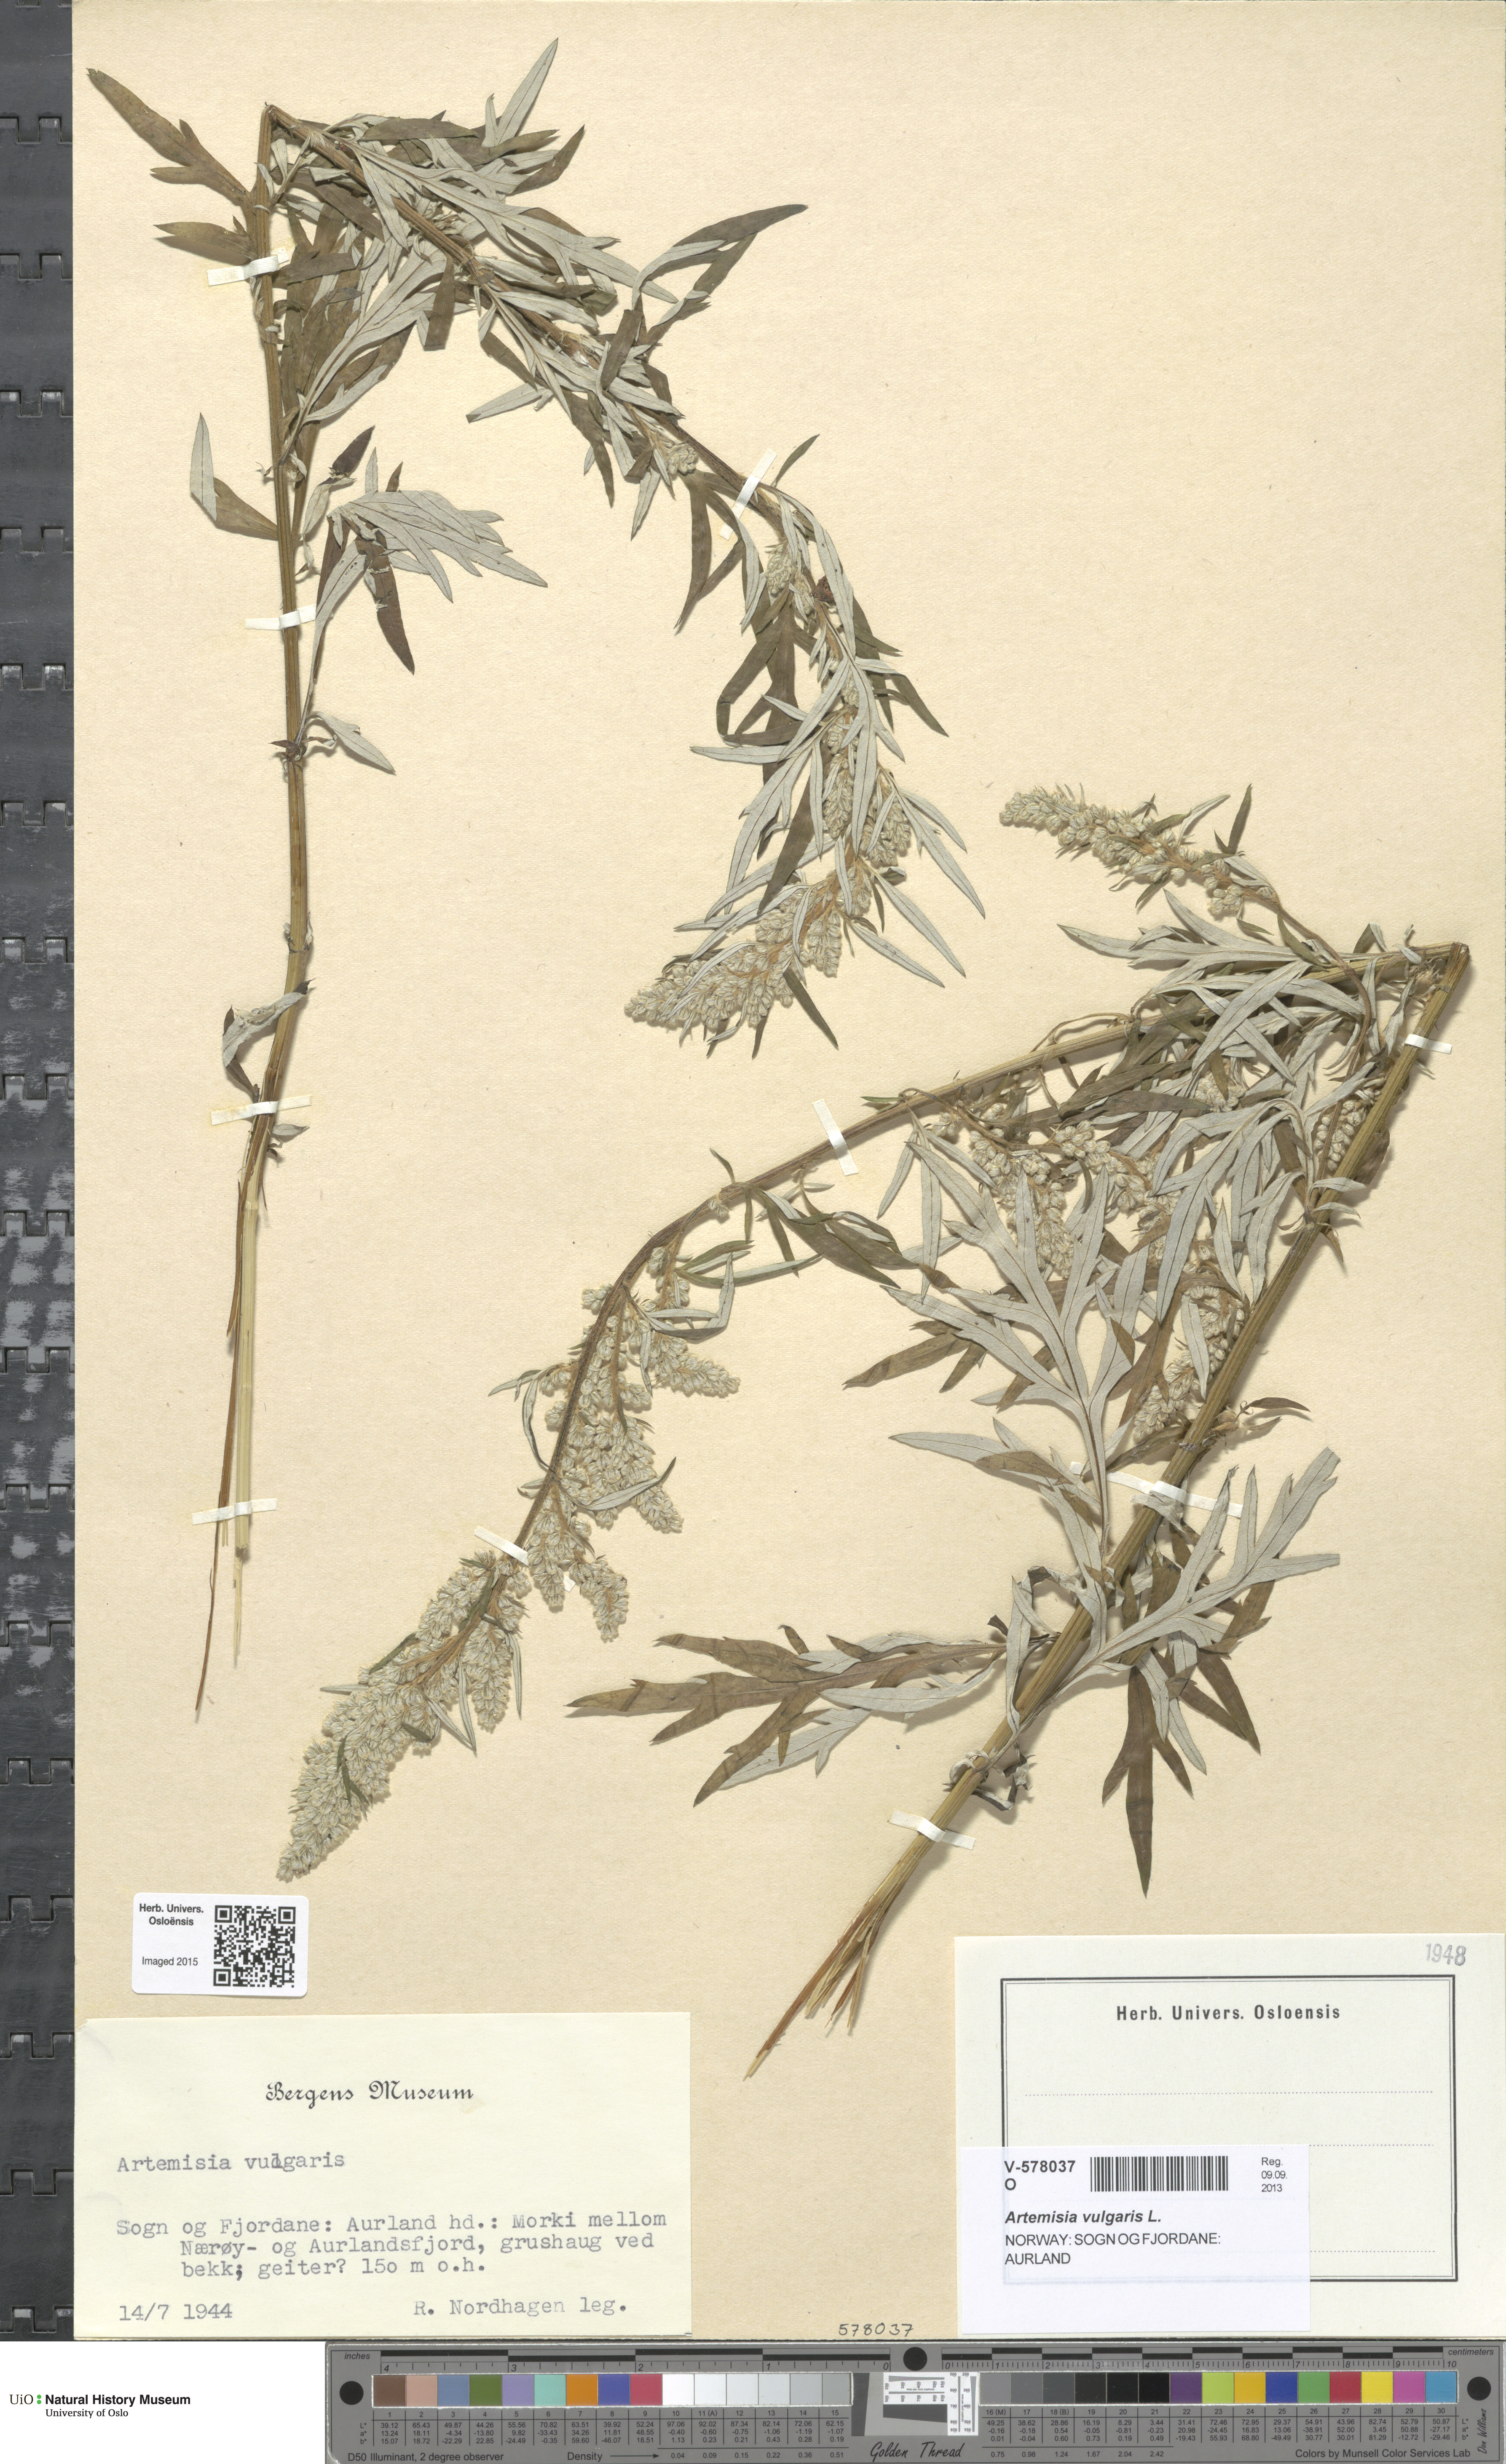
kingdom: Plantae
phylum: Tracheophyta
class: Magnoliopsida
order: Asterales
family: Asteraceae
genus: Artemisia
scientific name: Artemisia vulgaris
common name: Mugwort
